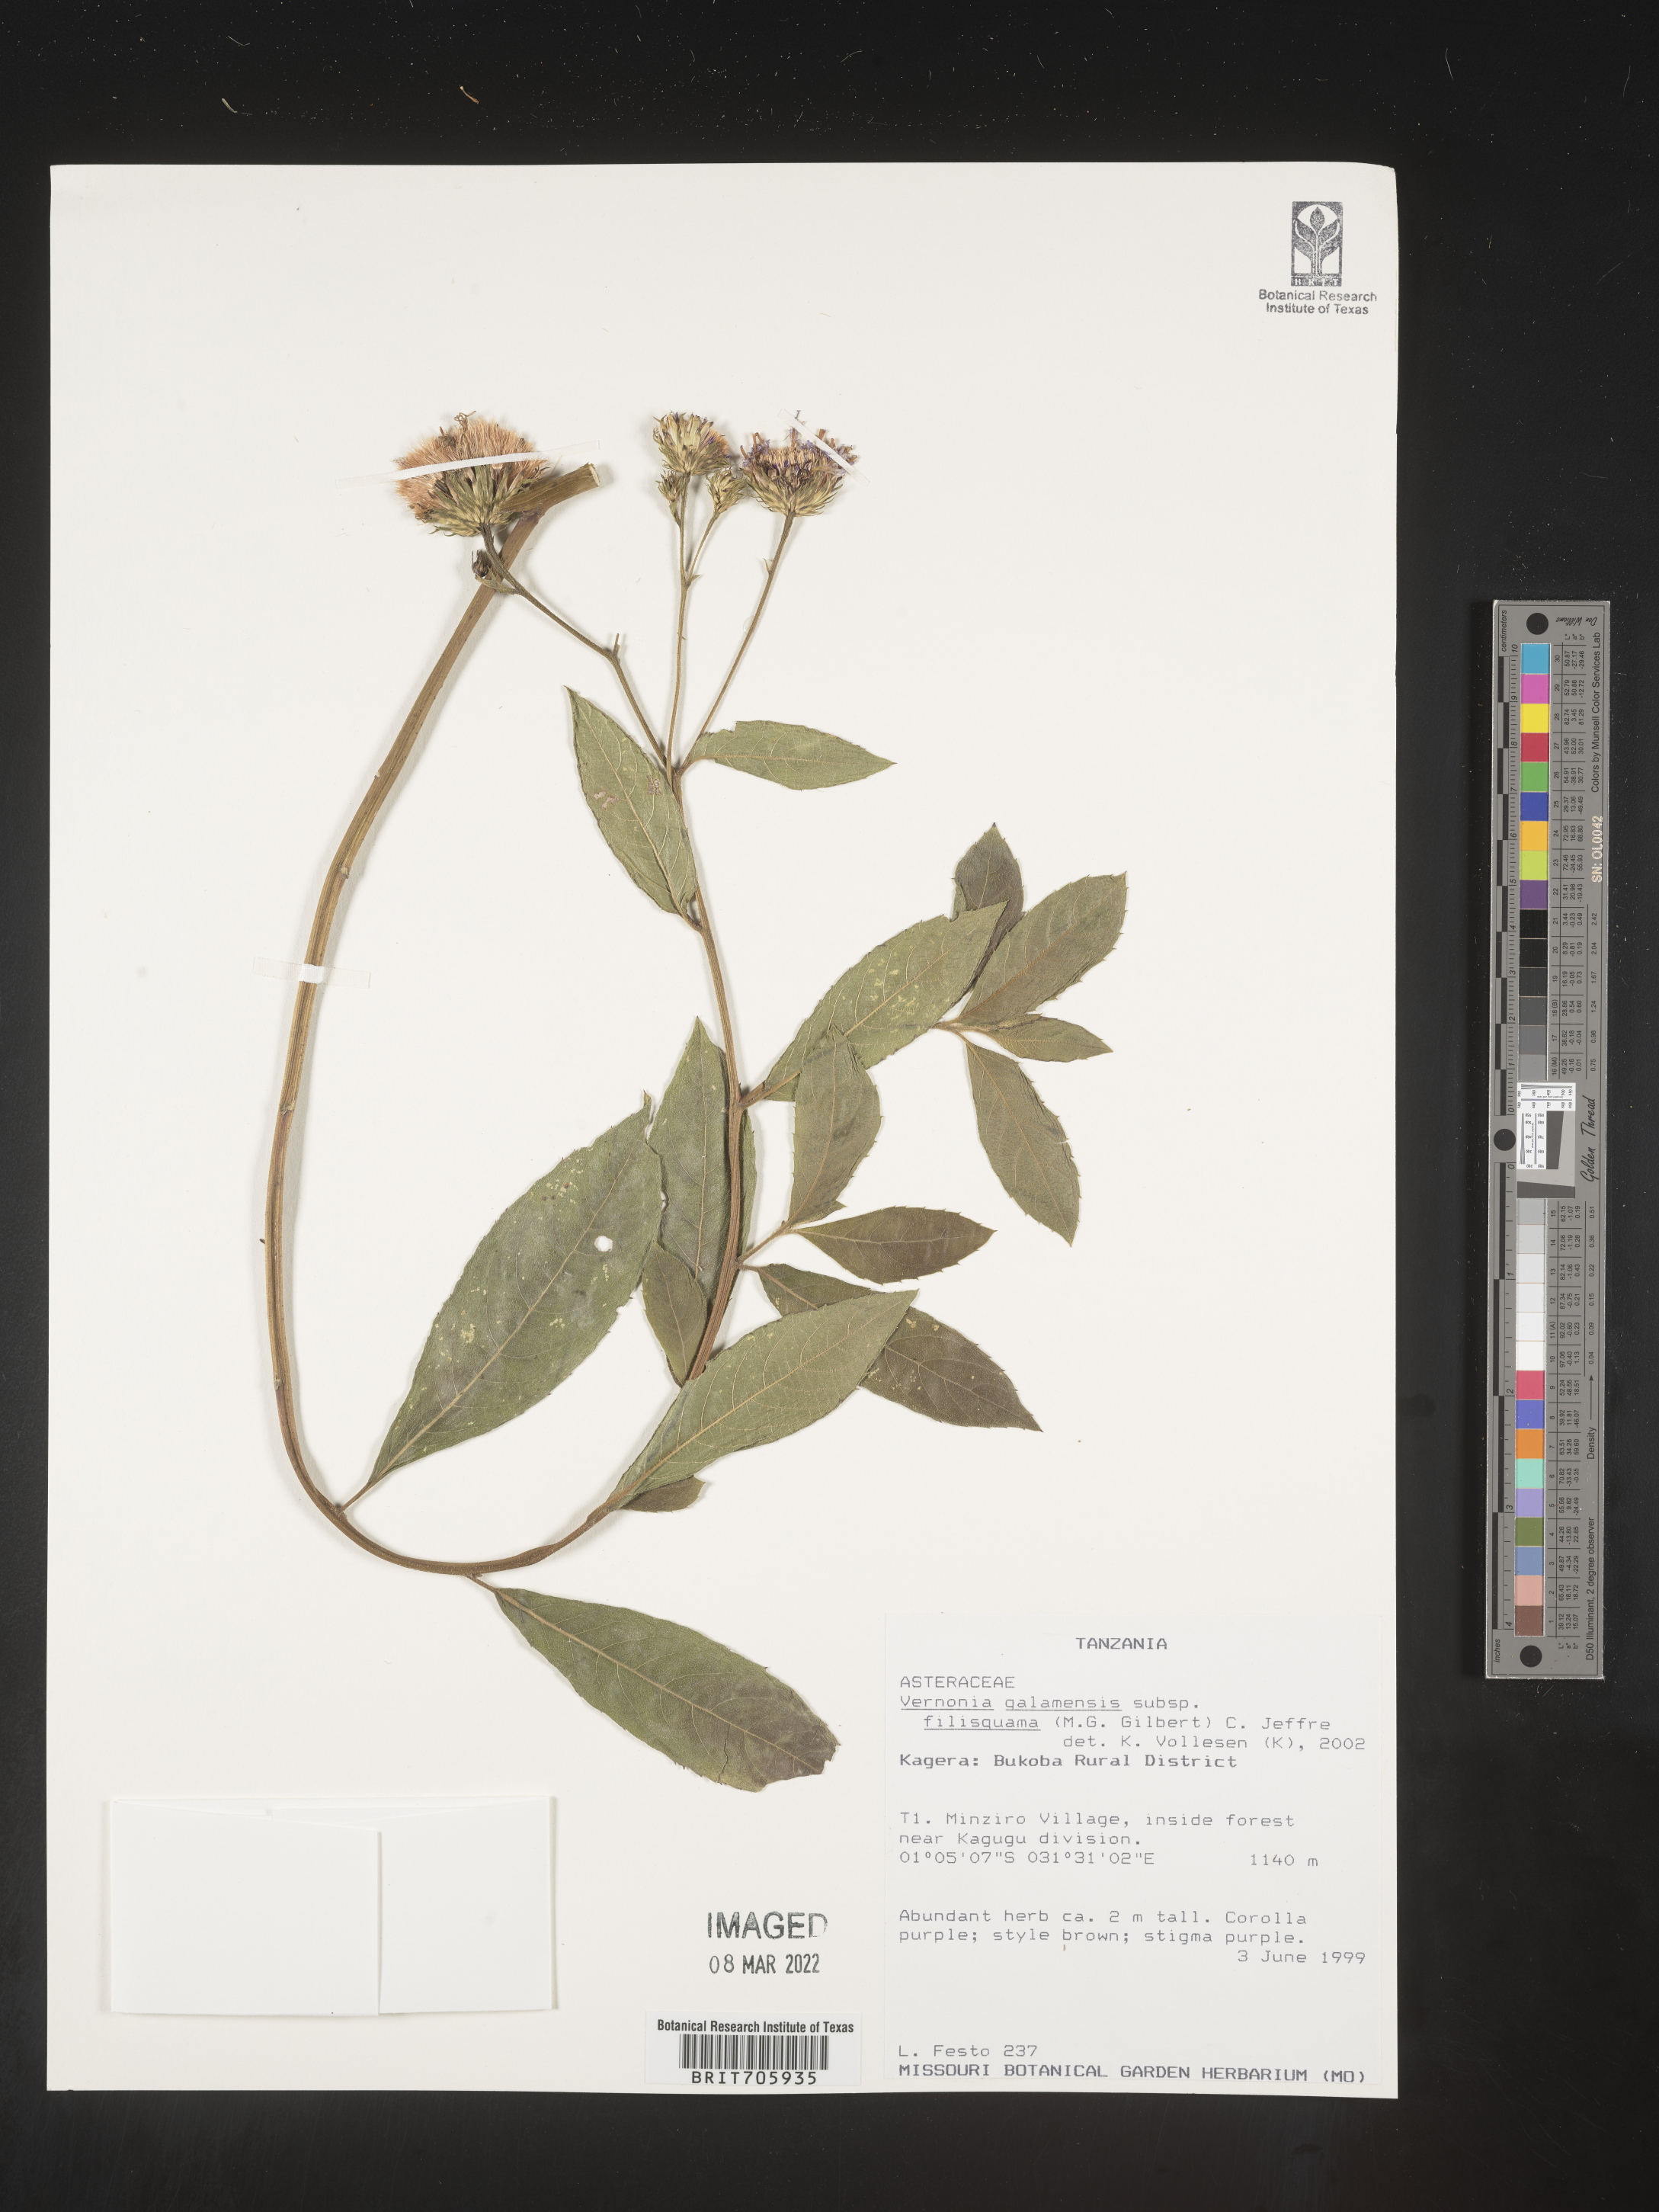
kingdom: Plantae
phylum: Tracheophyta
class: Magnoliopsida
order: Asterales
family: Asteraceae
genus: Vernonia
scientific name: Vernonia
